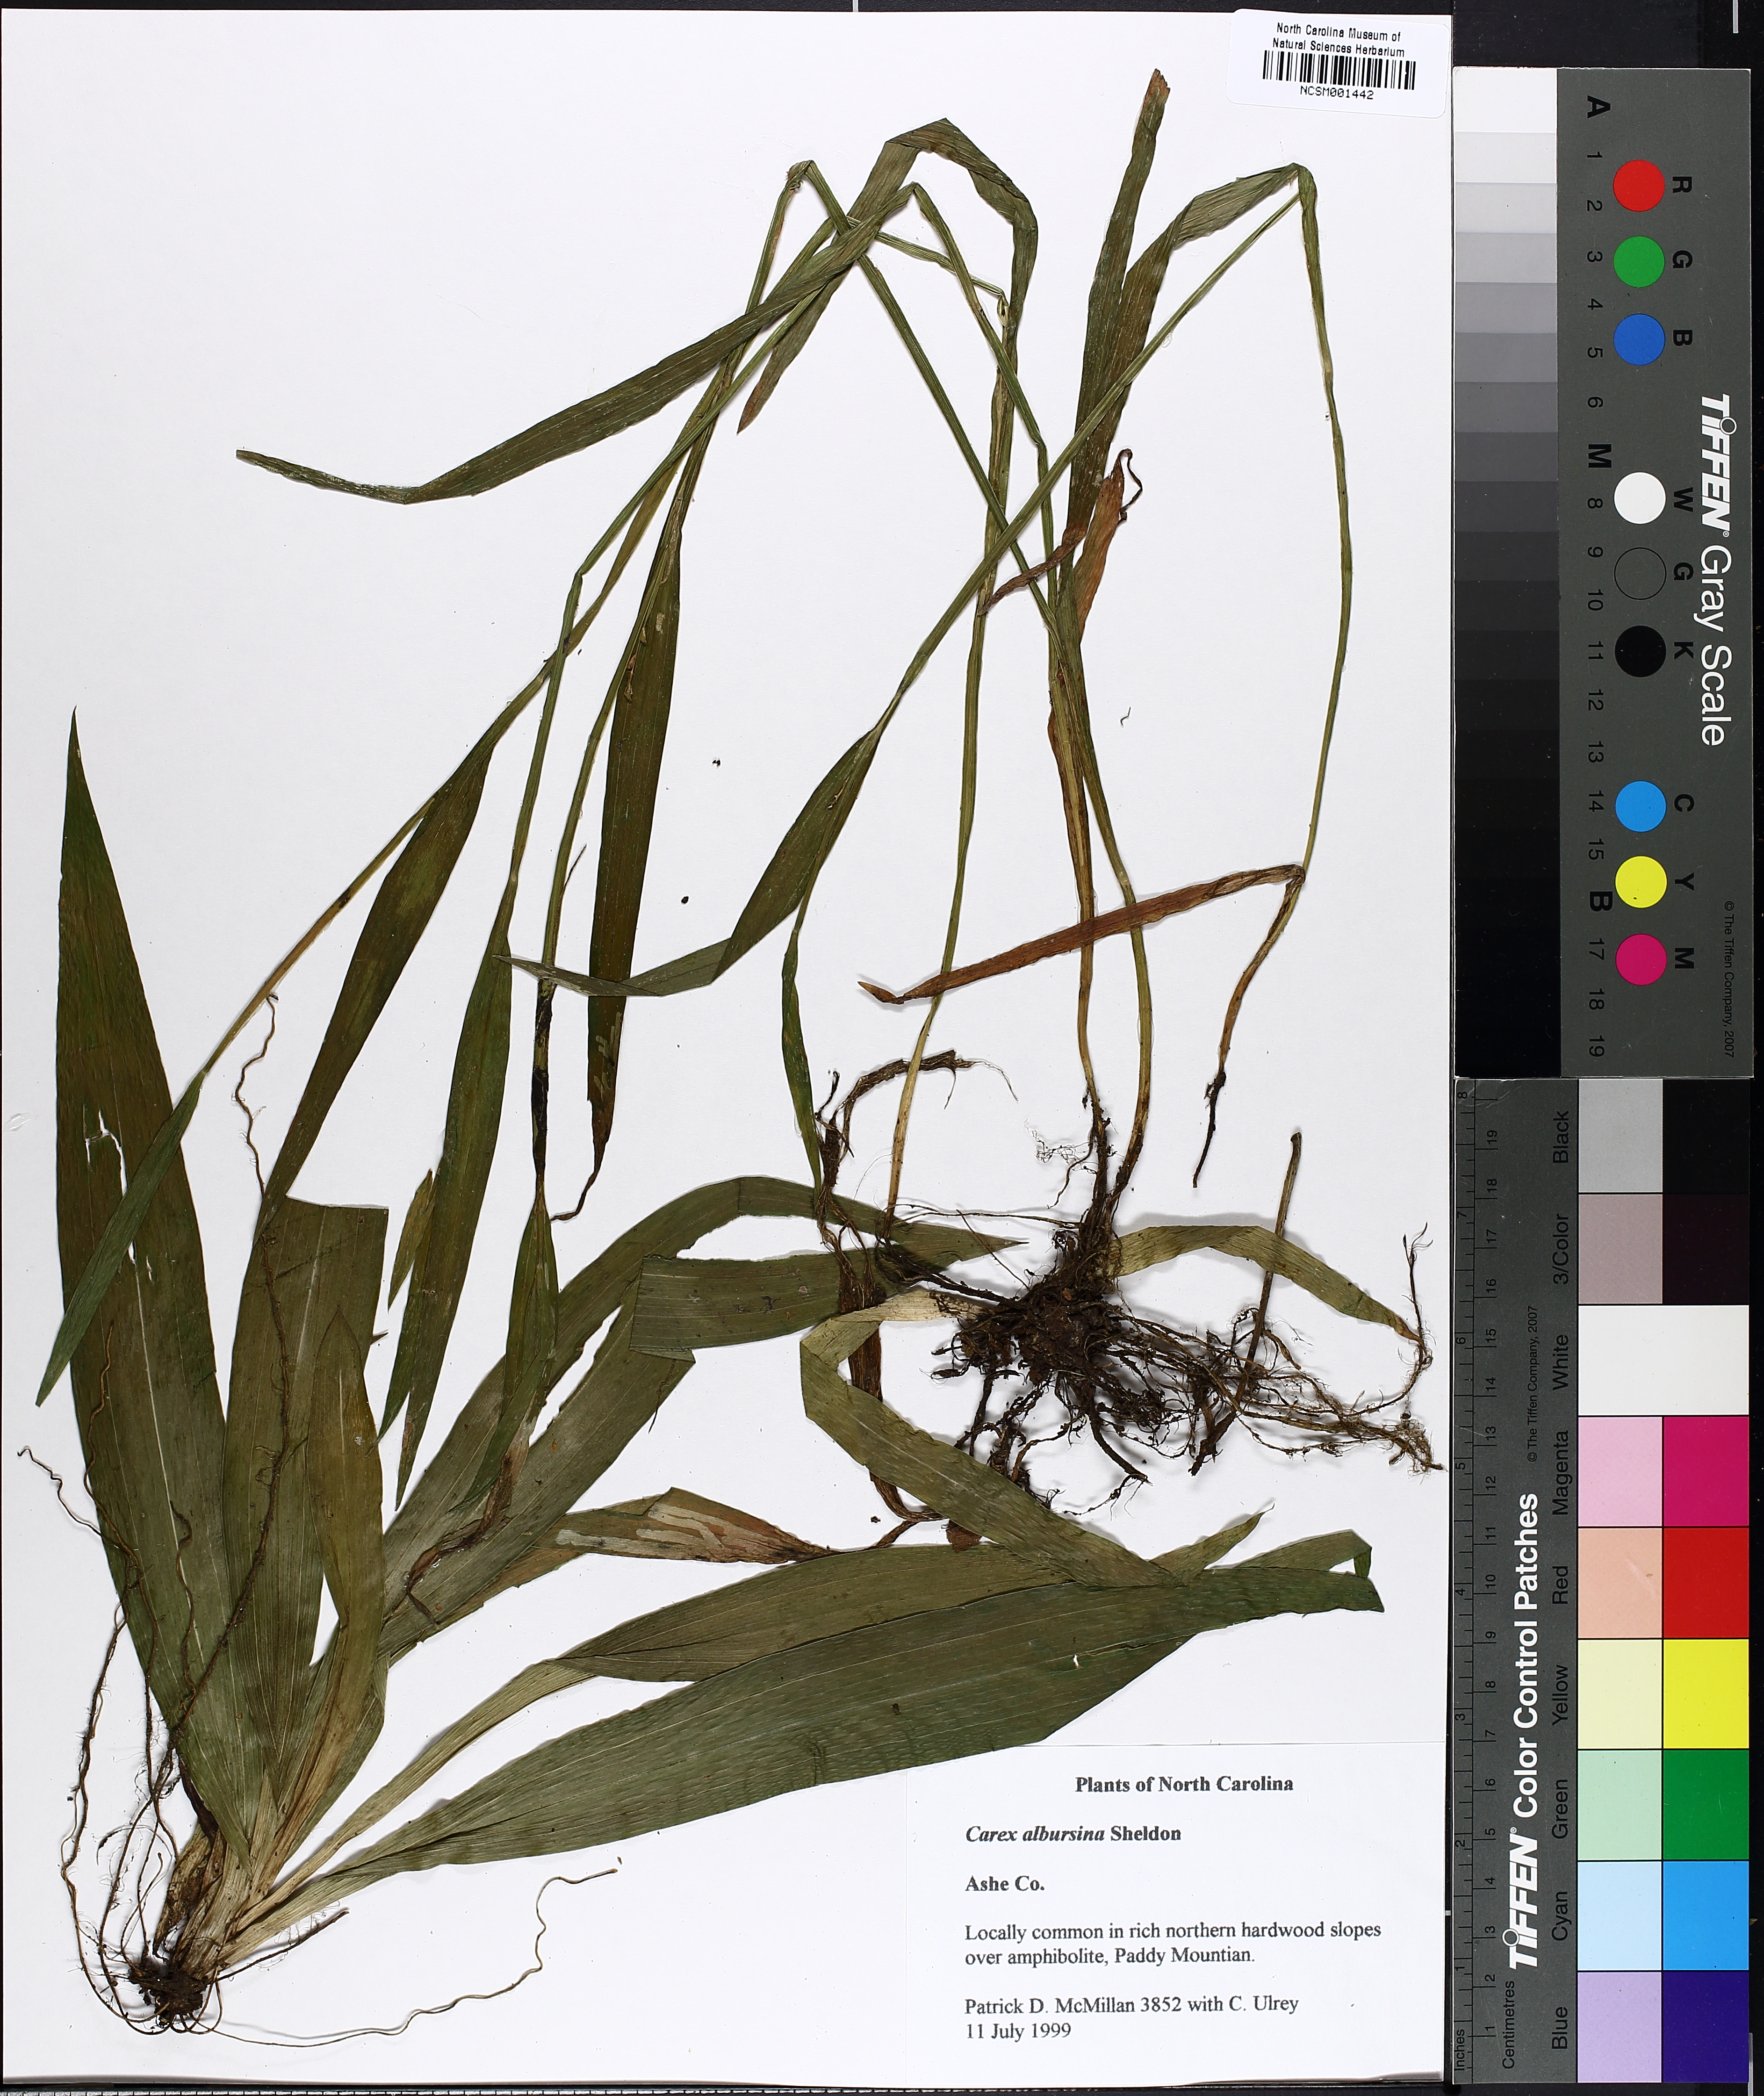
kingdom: Plantae
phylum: Tracheophyta
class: Liliopsida
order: Poales
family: Cyperaceae
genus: Carex
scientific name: Carex albursina
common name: Blunt-scale wood sedge
